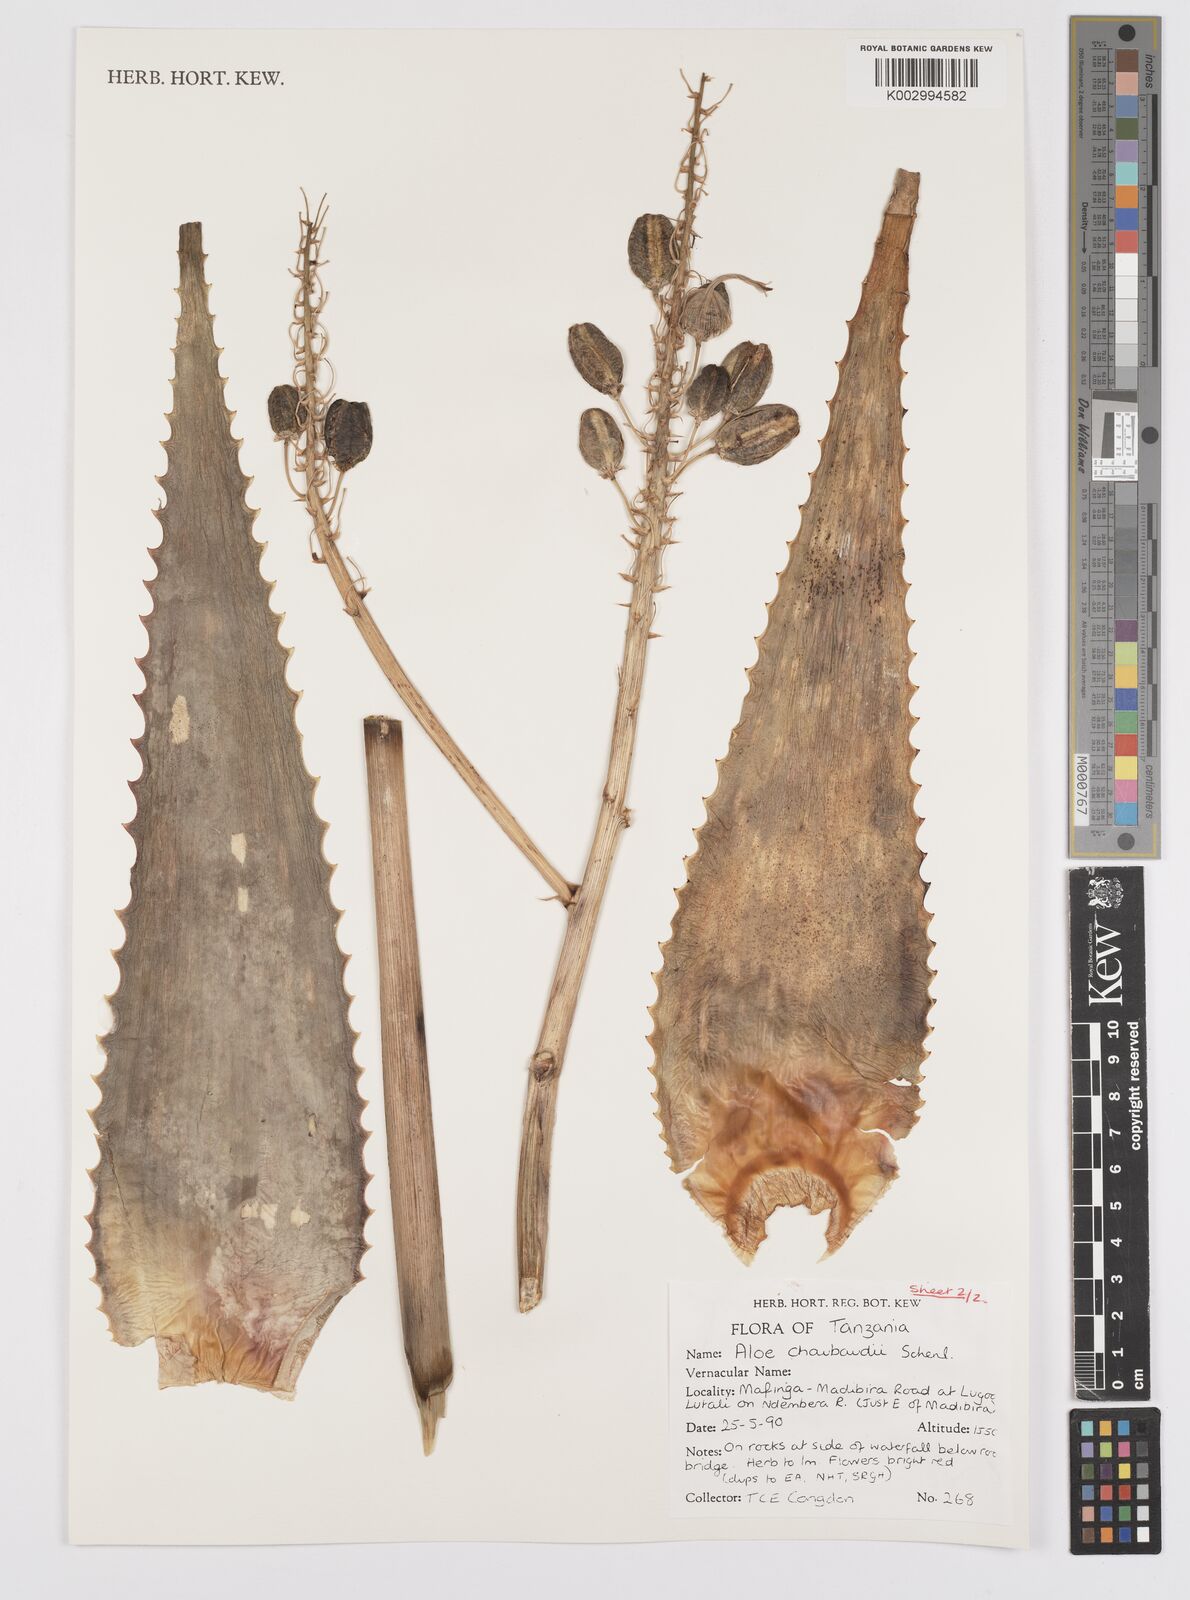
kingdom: Plantae
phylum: Tracheophyta
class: Liliopsida
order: Asparagales
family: Asphodelaceae
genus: Aloe
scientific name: Aloe chabaudii
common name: Chabaud's aloe
